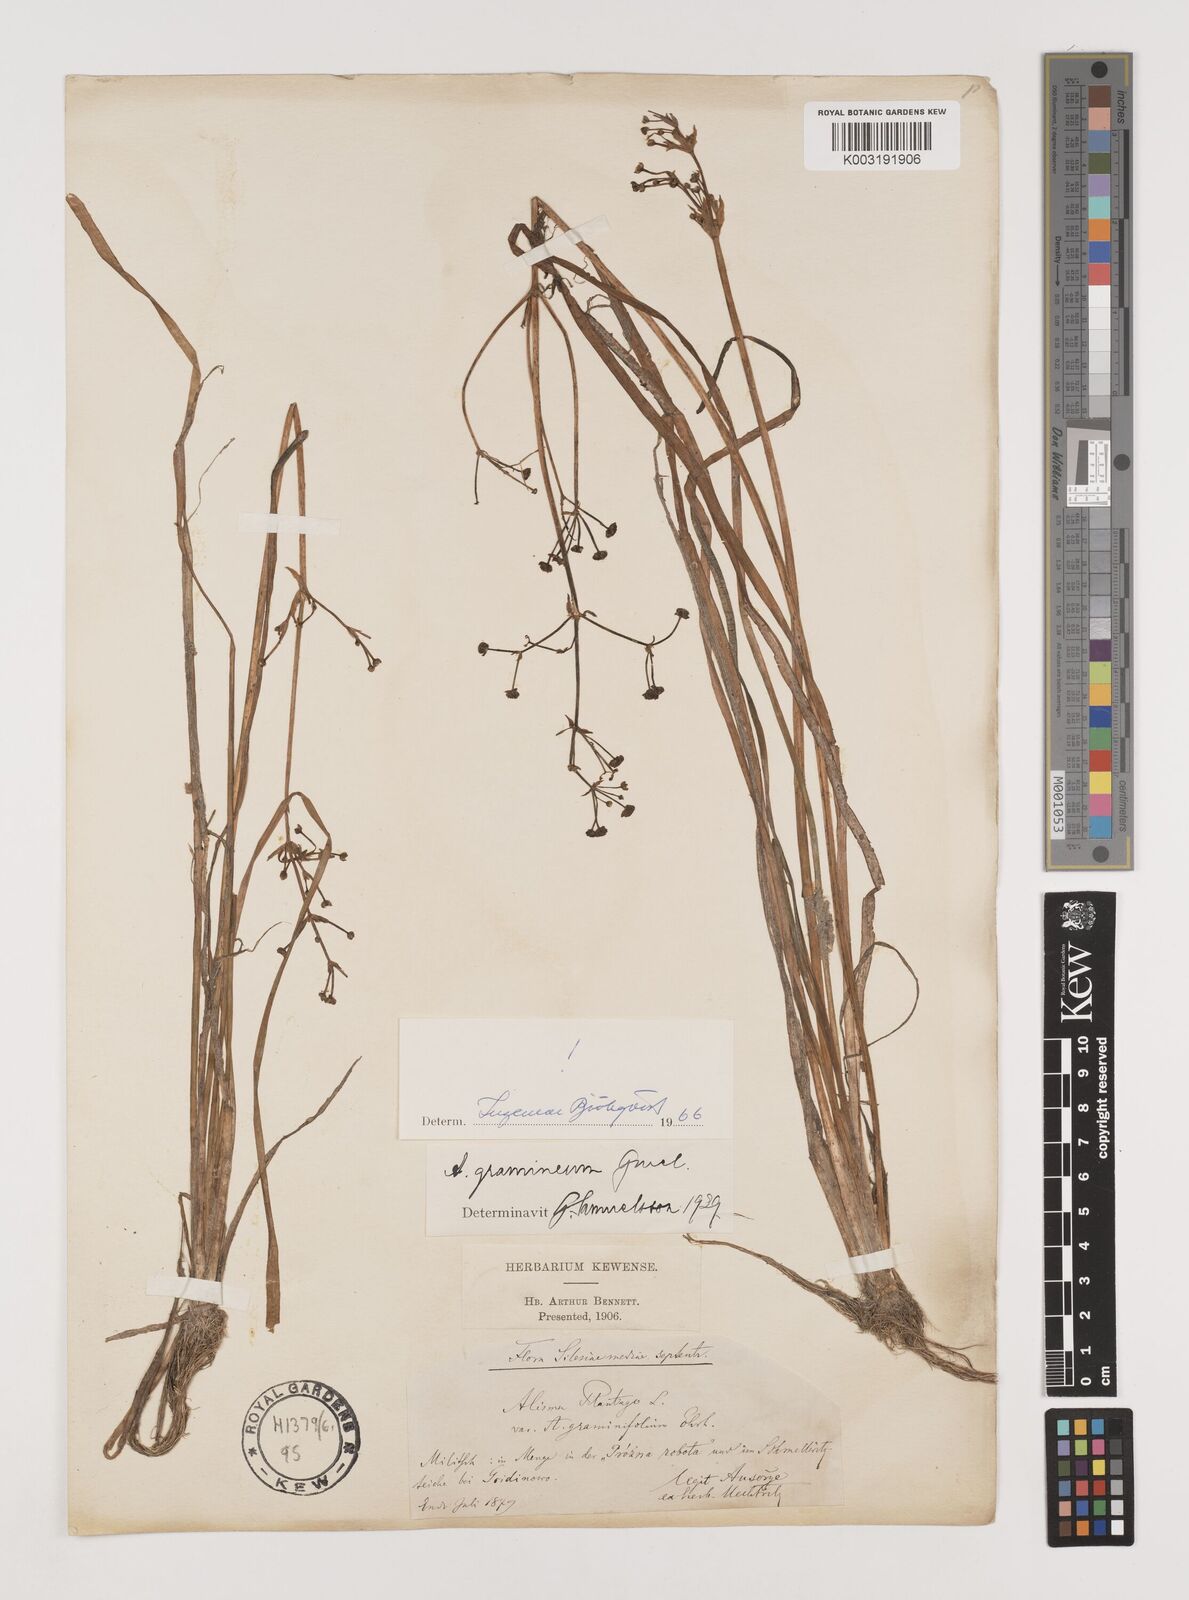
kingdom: Plantae
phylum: Tracheophyta
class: Liliopsida
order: Alismatales
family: Alismataceae
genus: Alisma
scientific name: Alisma gramineum
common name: Ribbon-leaved water-plantain
